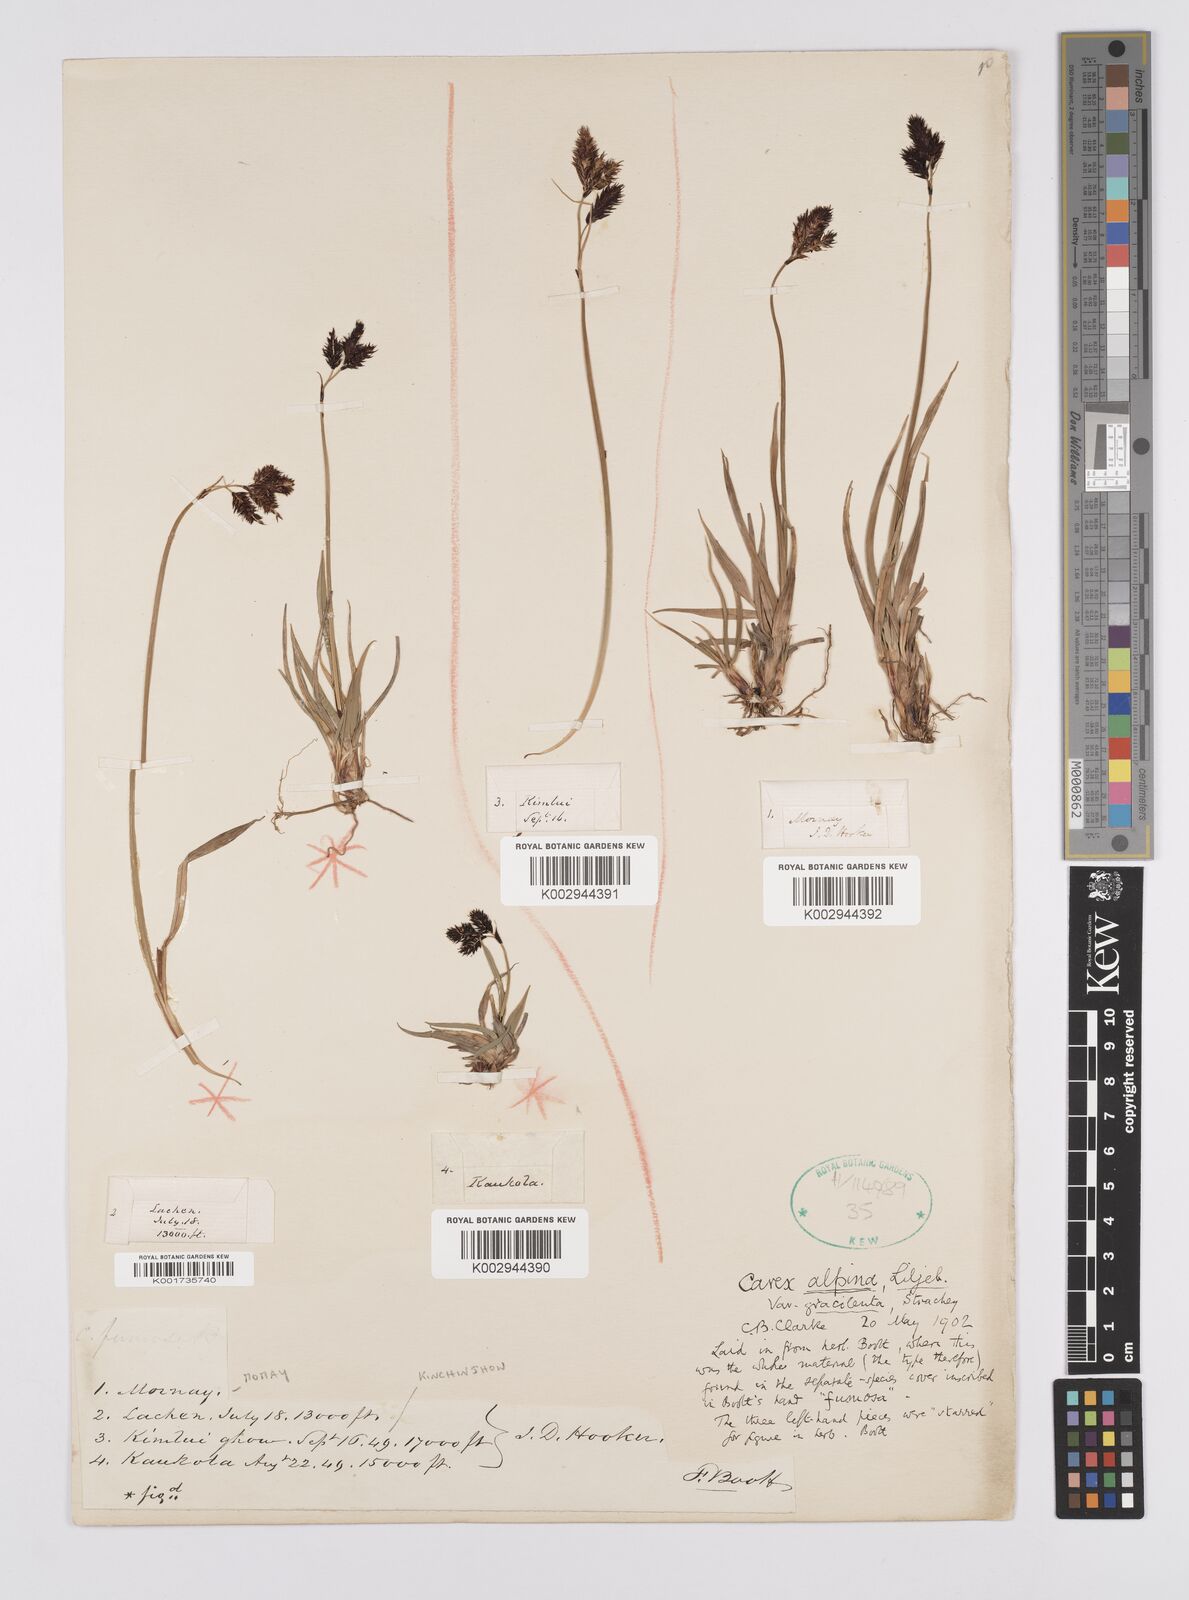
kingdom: Plantae
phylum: Tracheophyta
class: Liliopsida
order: Poales
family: Cyperaceae
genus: Carex
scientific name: Carex norvegica
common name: Close-headed alpine-sedge
